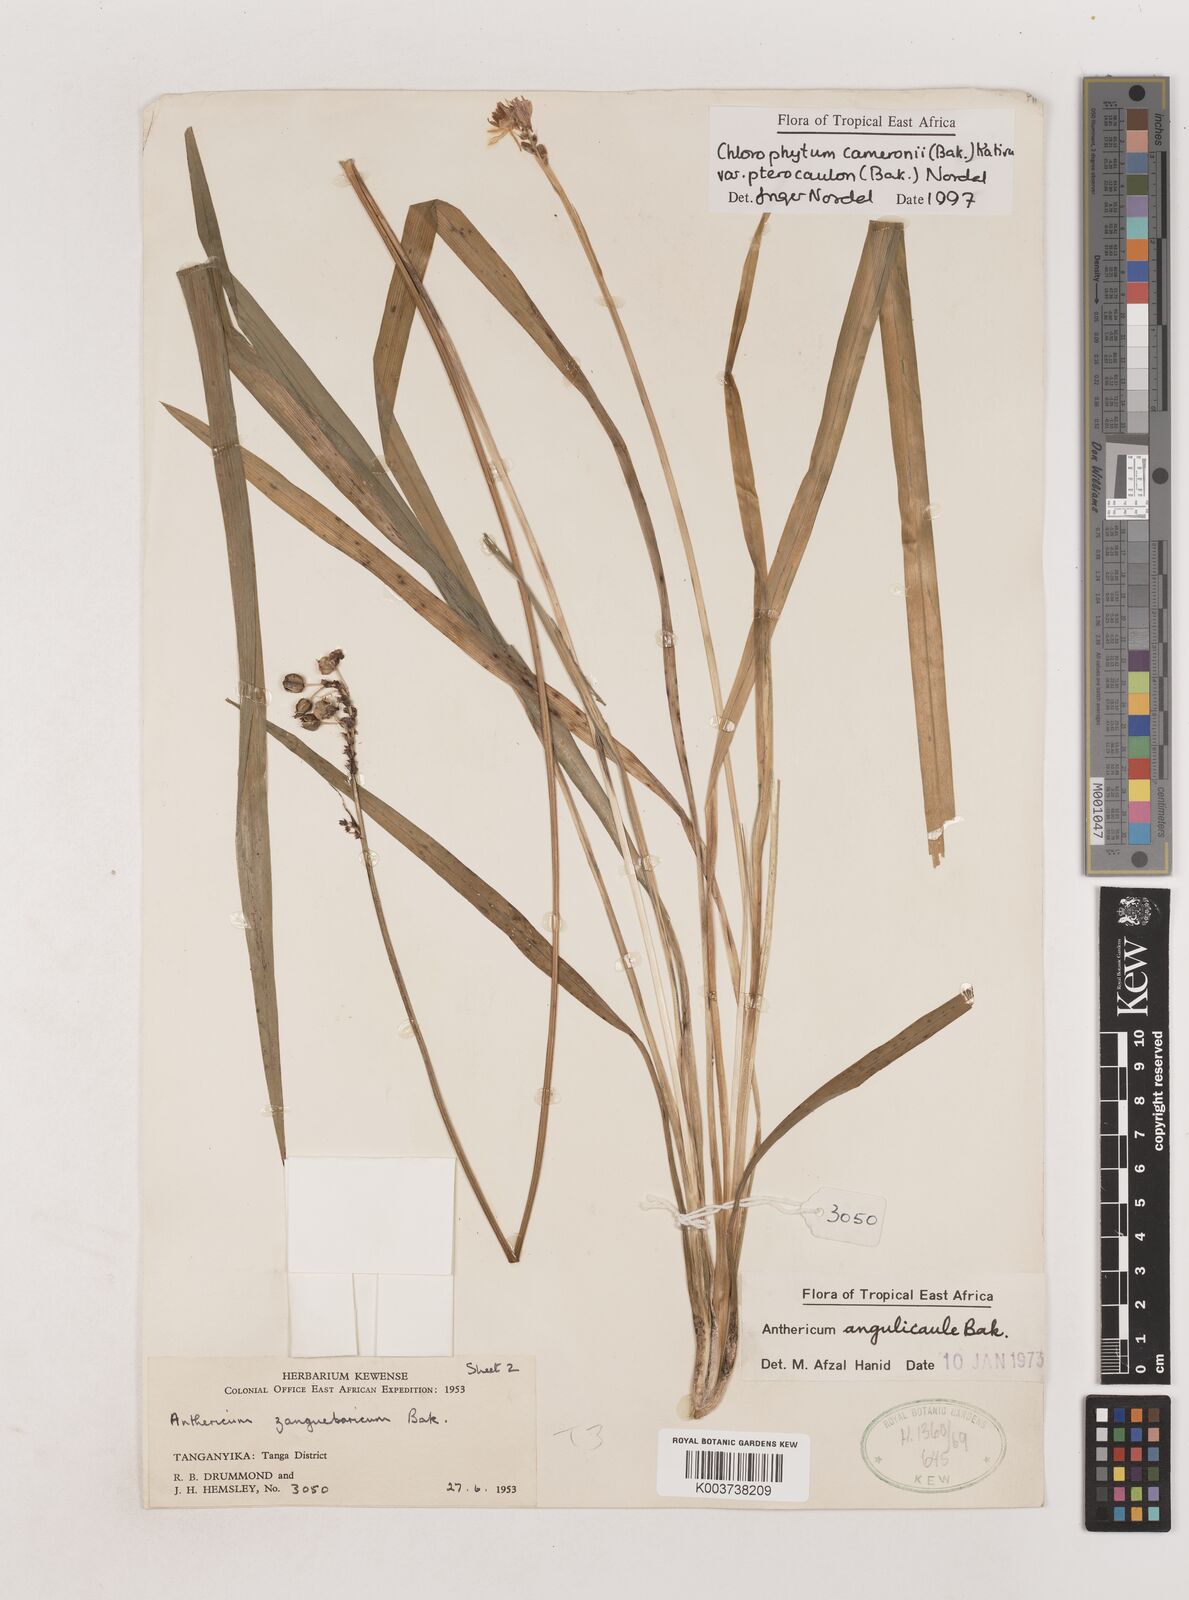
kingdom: Plantae
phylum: Tracheophyta
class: Liliopsida
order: Asparagales
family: Asparagaceae
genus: Chlorophytum
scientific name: Chlorophytum cameronii
